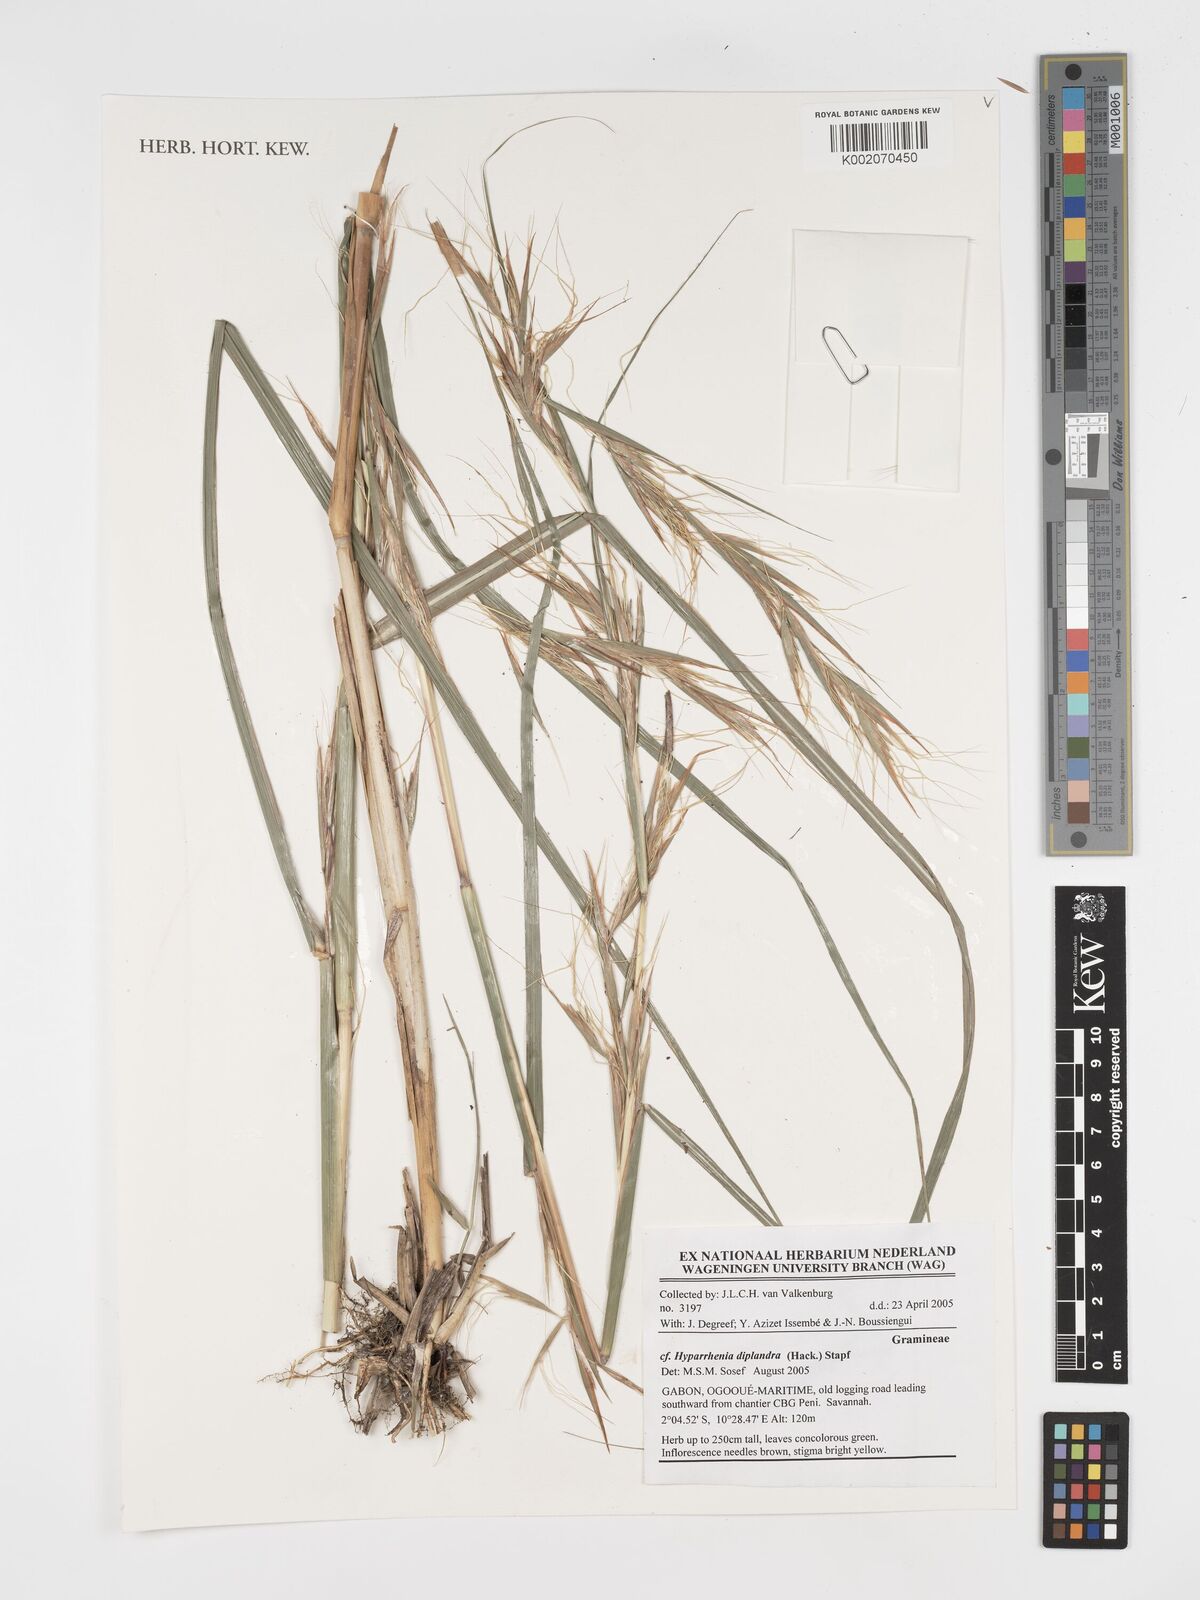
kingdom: Plantae
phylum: Tracheophyta
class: Liliopsida
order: Poales
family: Poaceae
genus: Hyparrhenia
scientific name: Hyparrhenia diplandra
